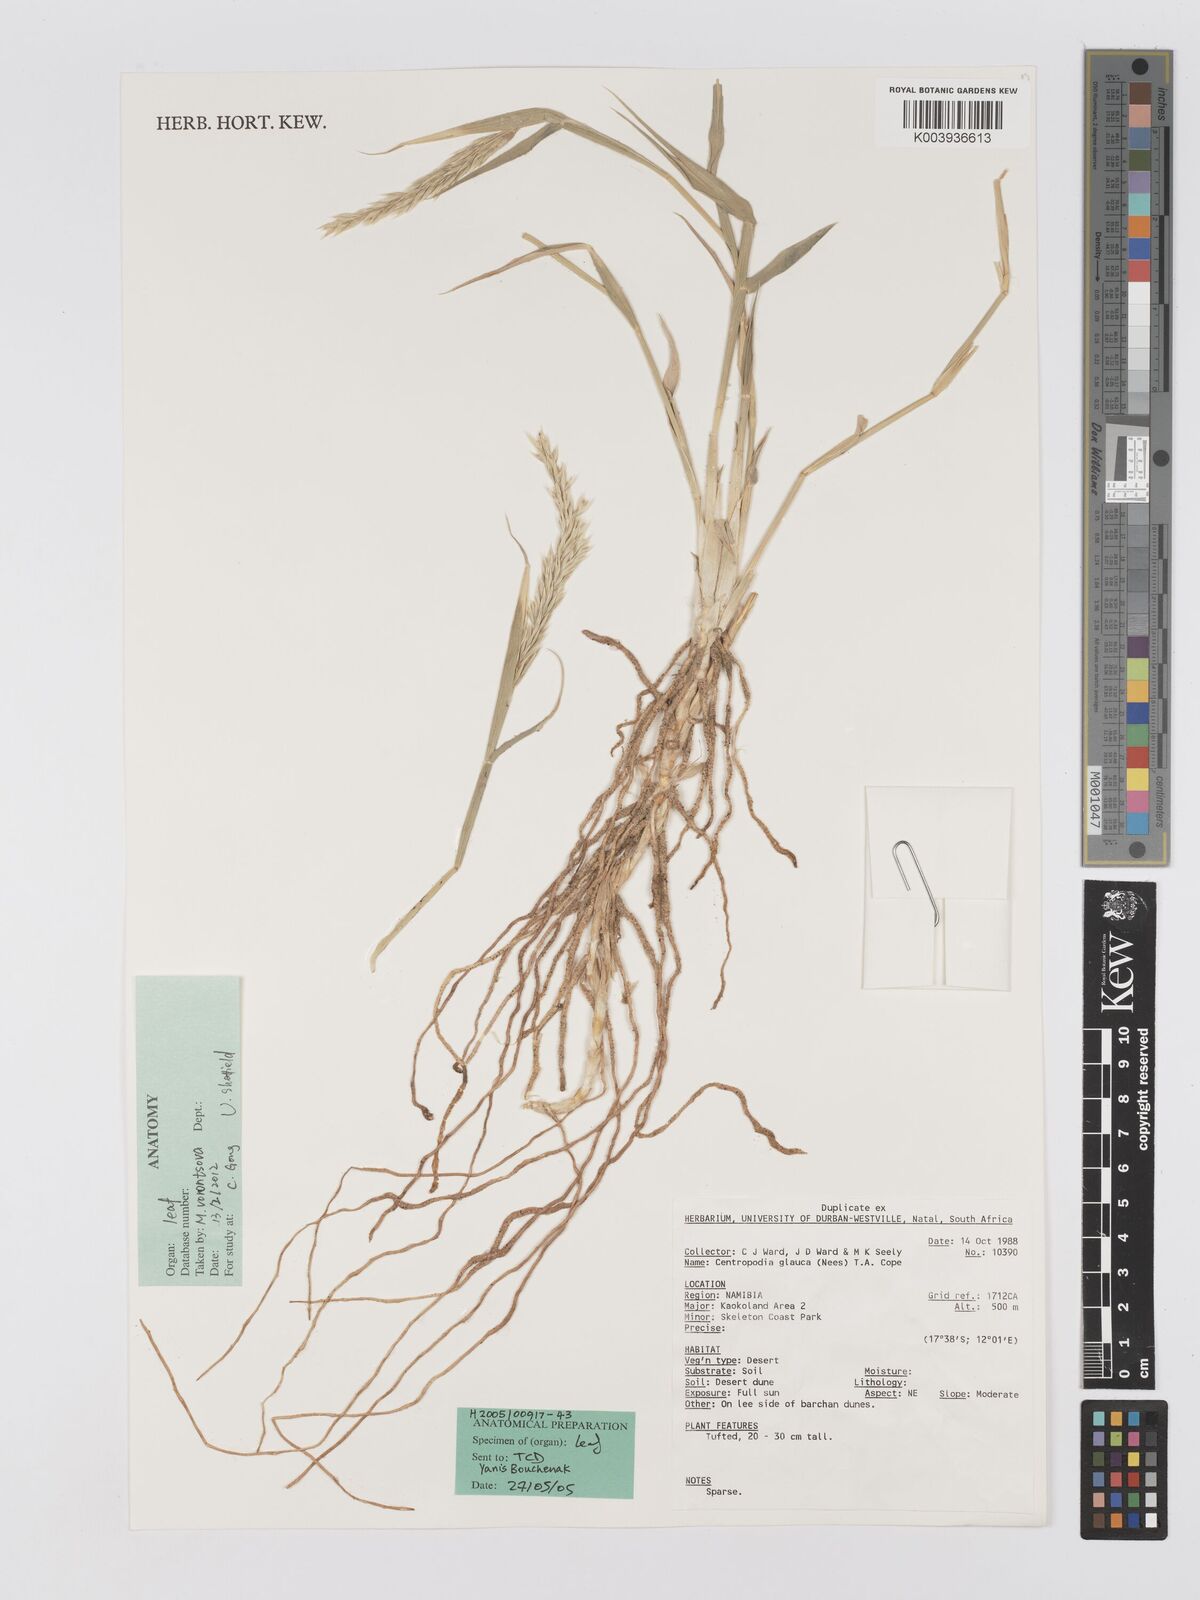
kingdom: Plantae
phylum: Tracheophyta
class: Liliopsida
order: Poales
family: Poaceae
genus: Centropodia
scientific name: Centropodia glauca
